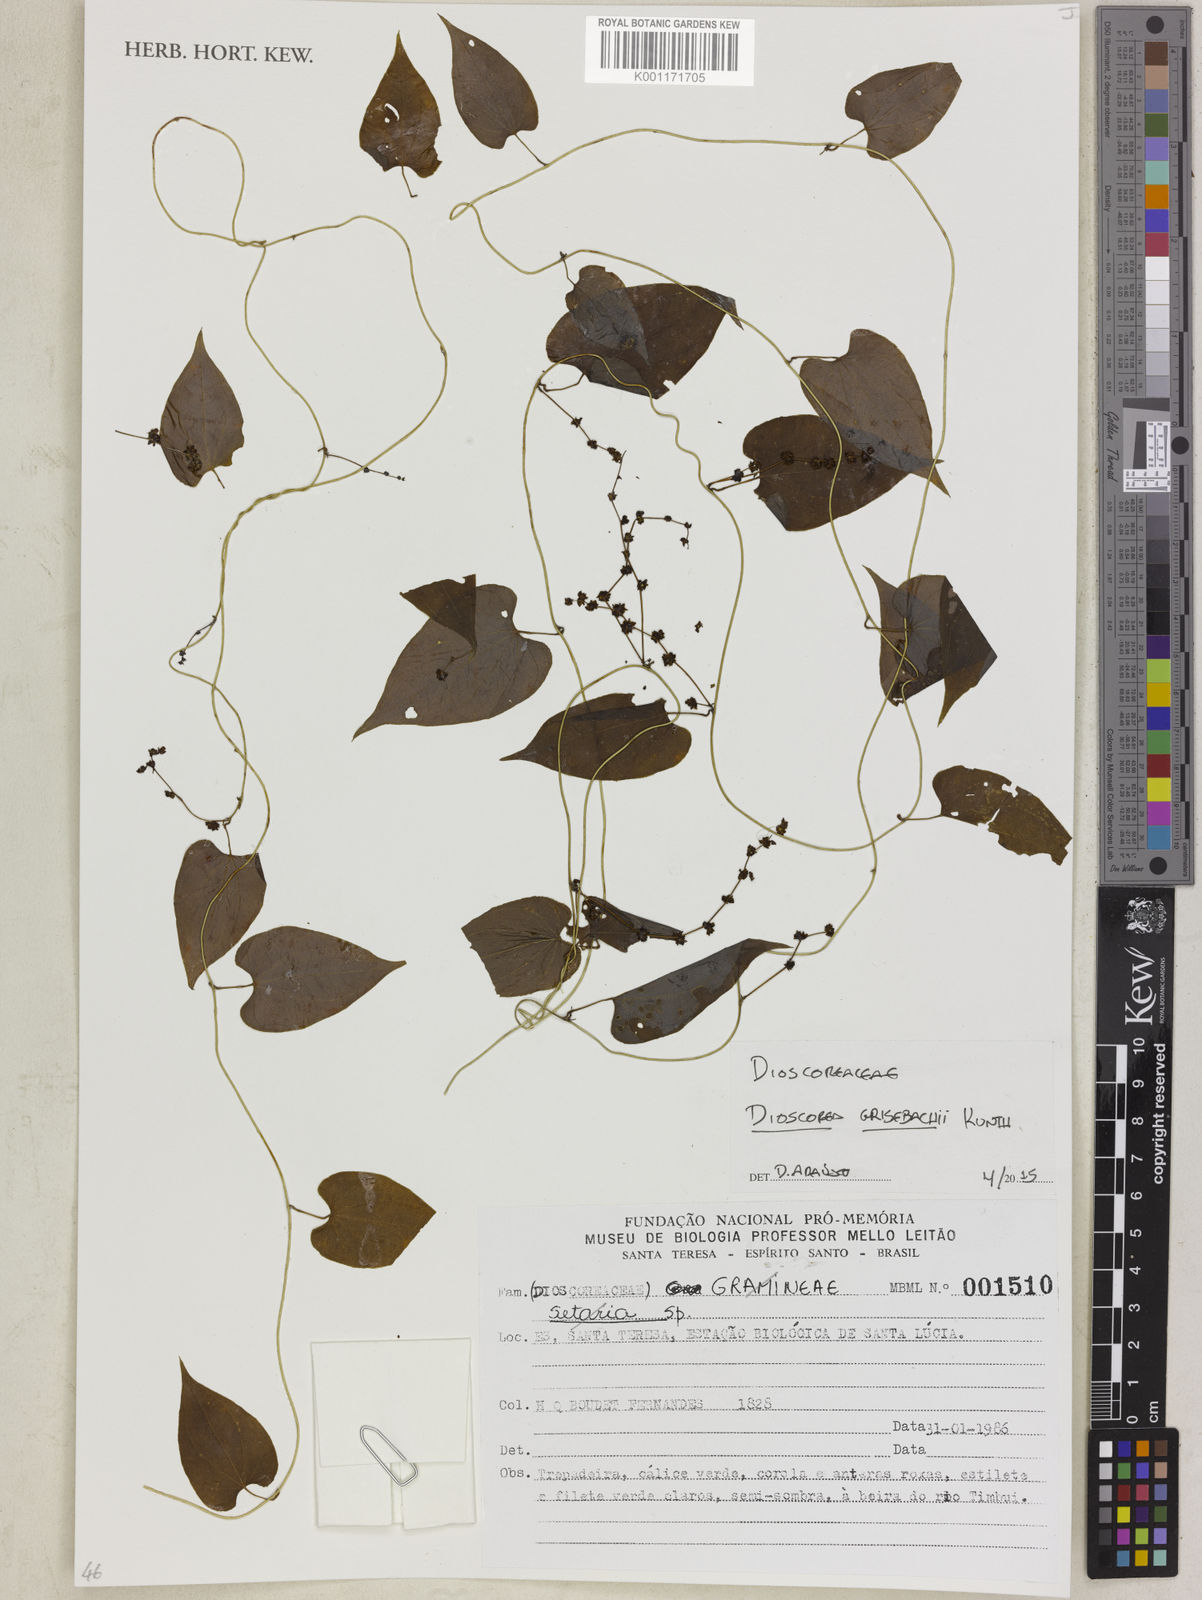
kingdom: Plantae
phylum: Tracheophyta
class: Liliopsida
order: Dioscoreales
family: Dioscoreaceae
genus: Dioscorea
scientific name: Dioscorea grisebachii
